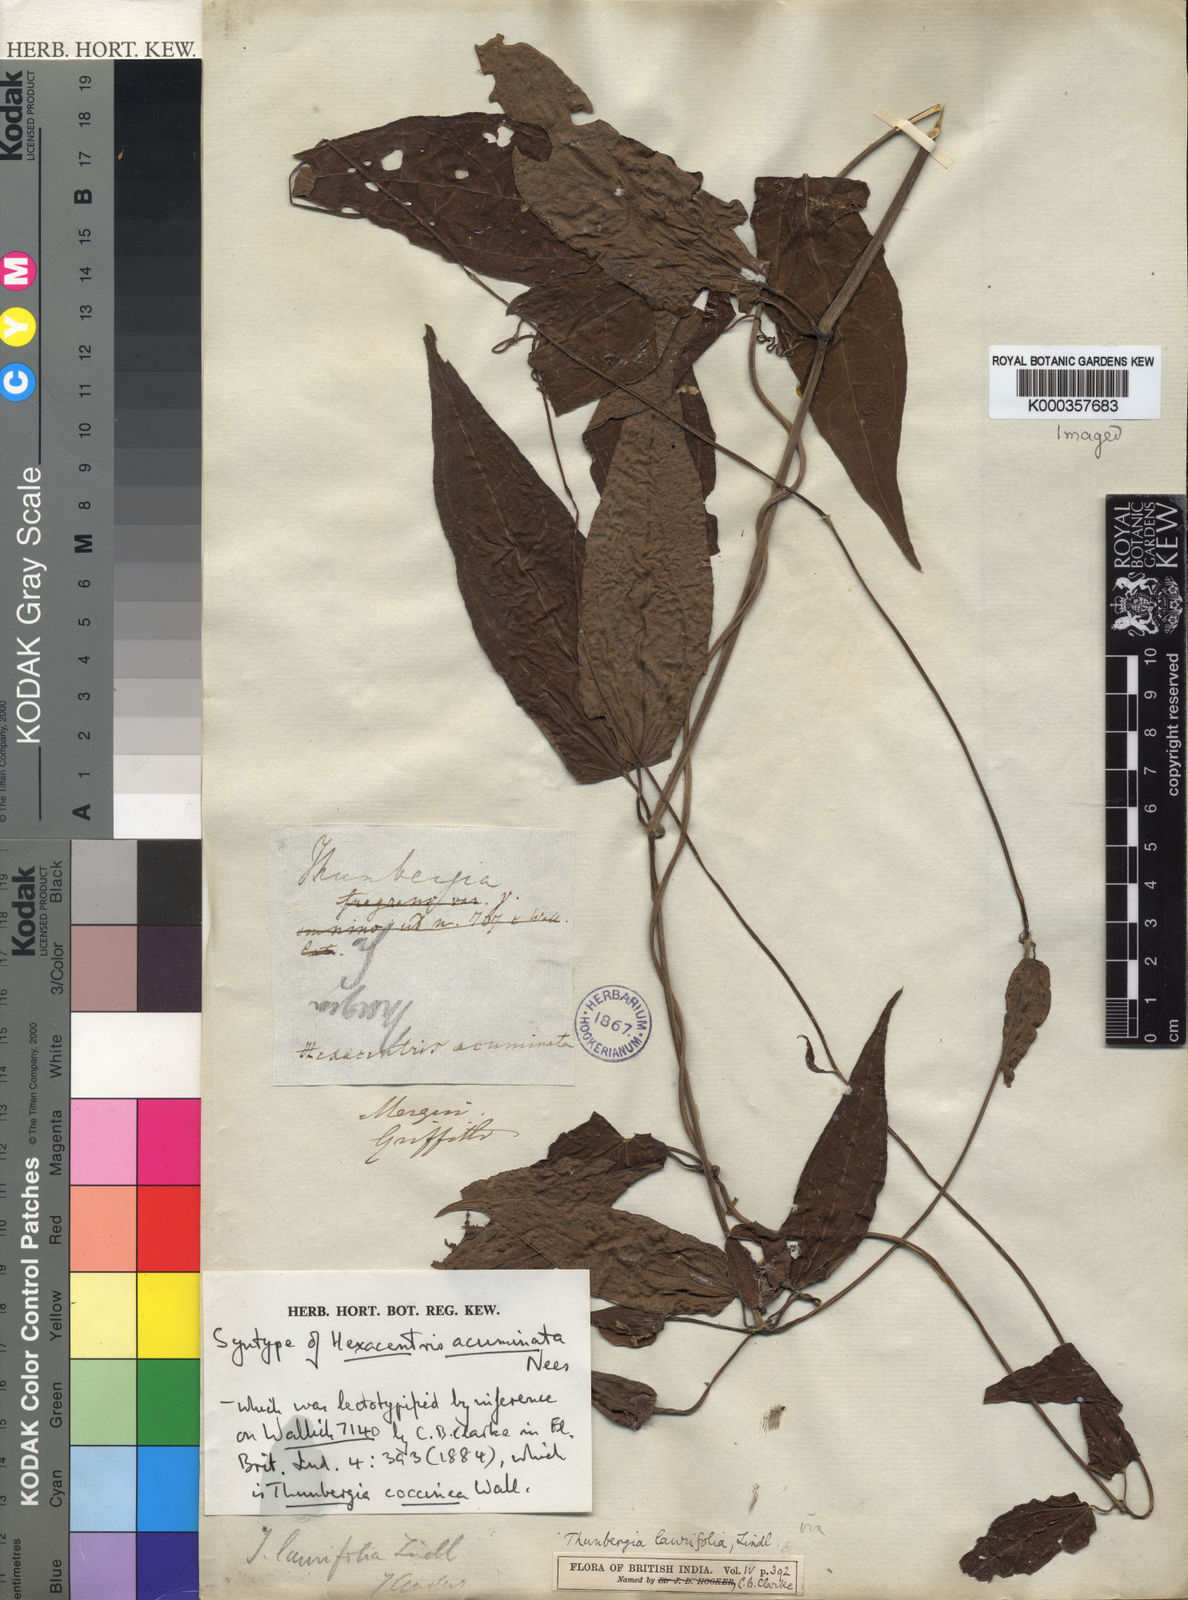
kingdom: Plantae
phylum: Tracheophyta
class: Magnoliopsida
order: Lamiales
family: Acanthaceae
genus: Thunbergia
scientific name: Thunbergia laurifolia
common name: Laurel-leaved thunbergia
